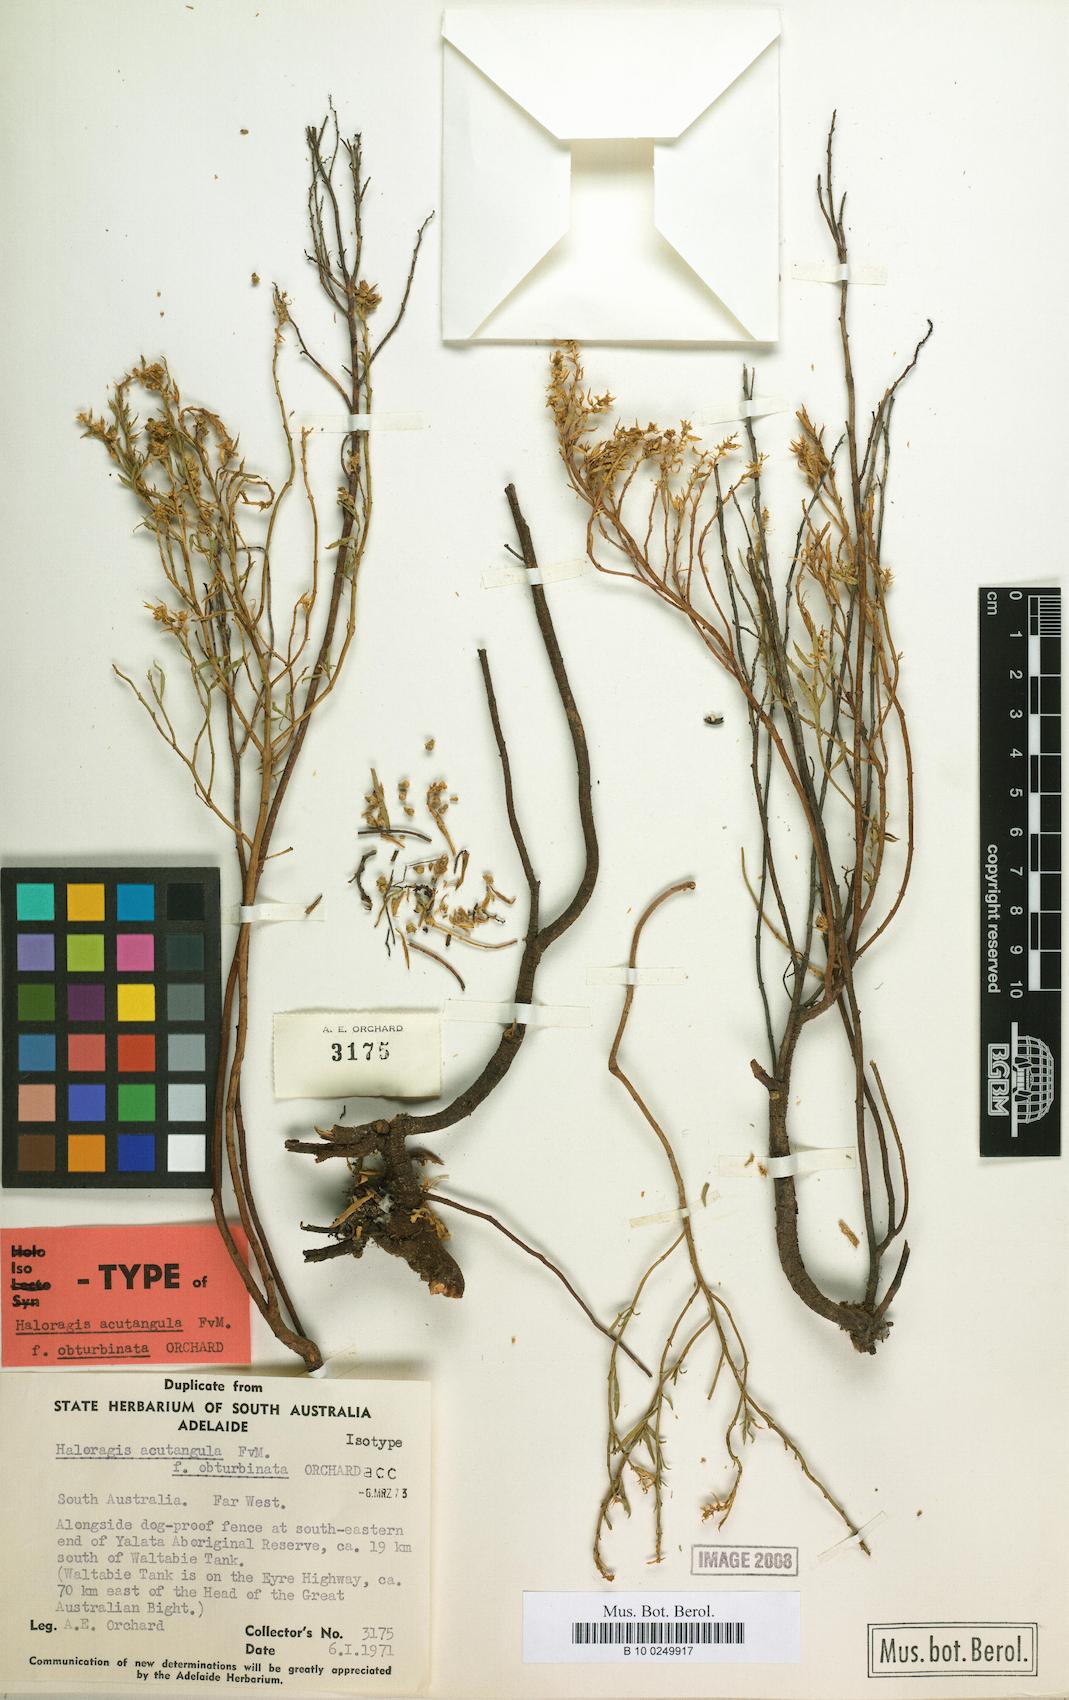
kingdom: Plantae
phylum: Tracheophyta
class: Magnoliopsida
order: Saxifragales
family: Haloragaceae
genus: Haloragis
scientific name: Haloragis acutangula
